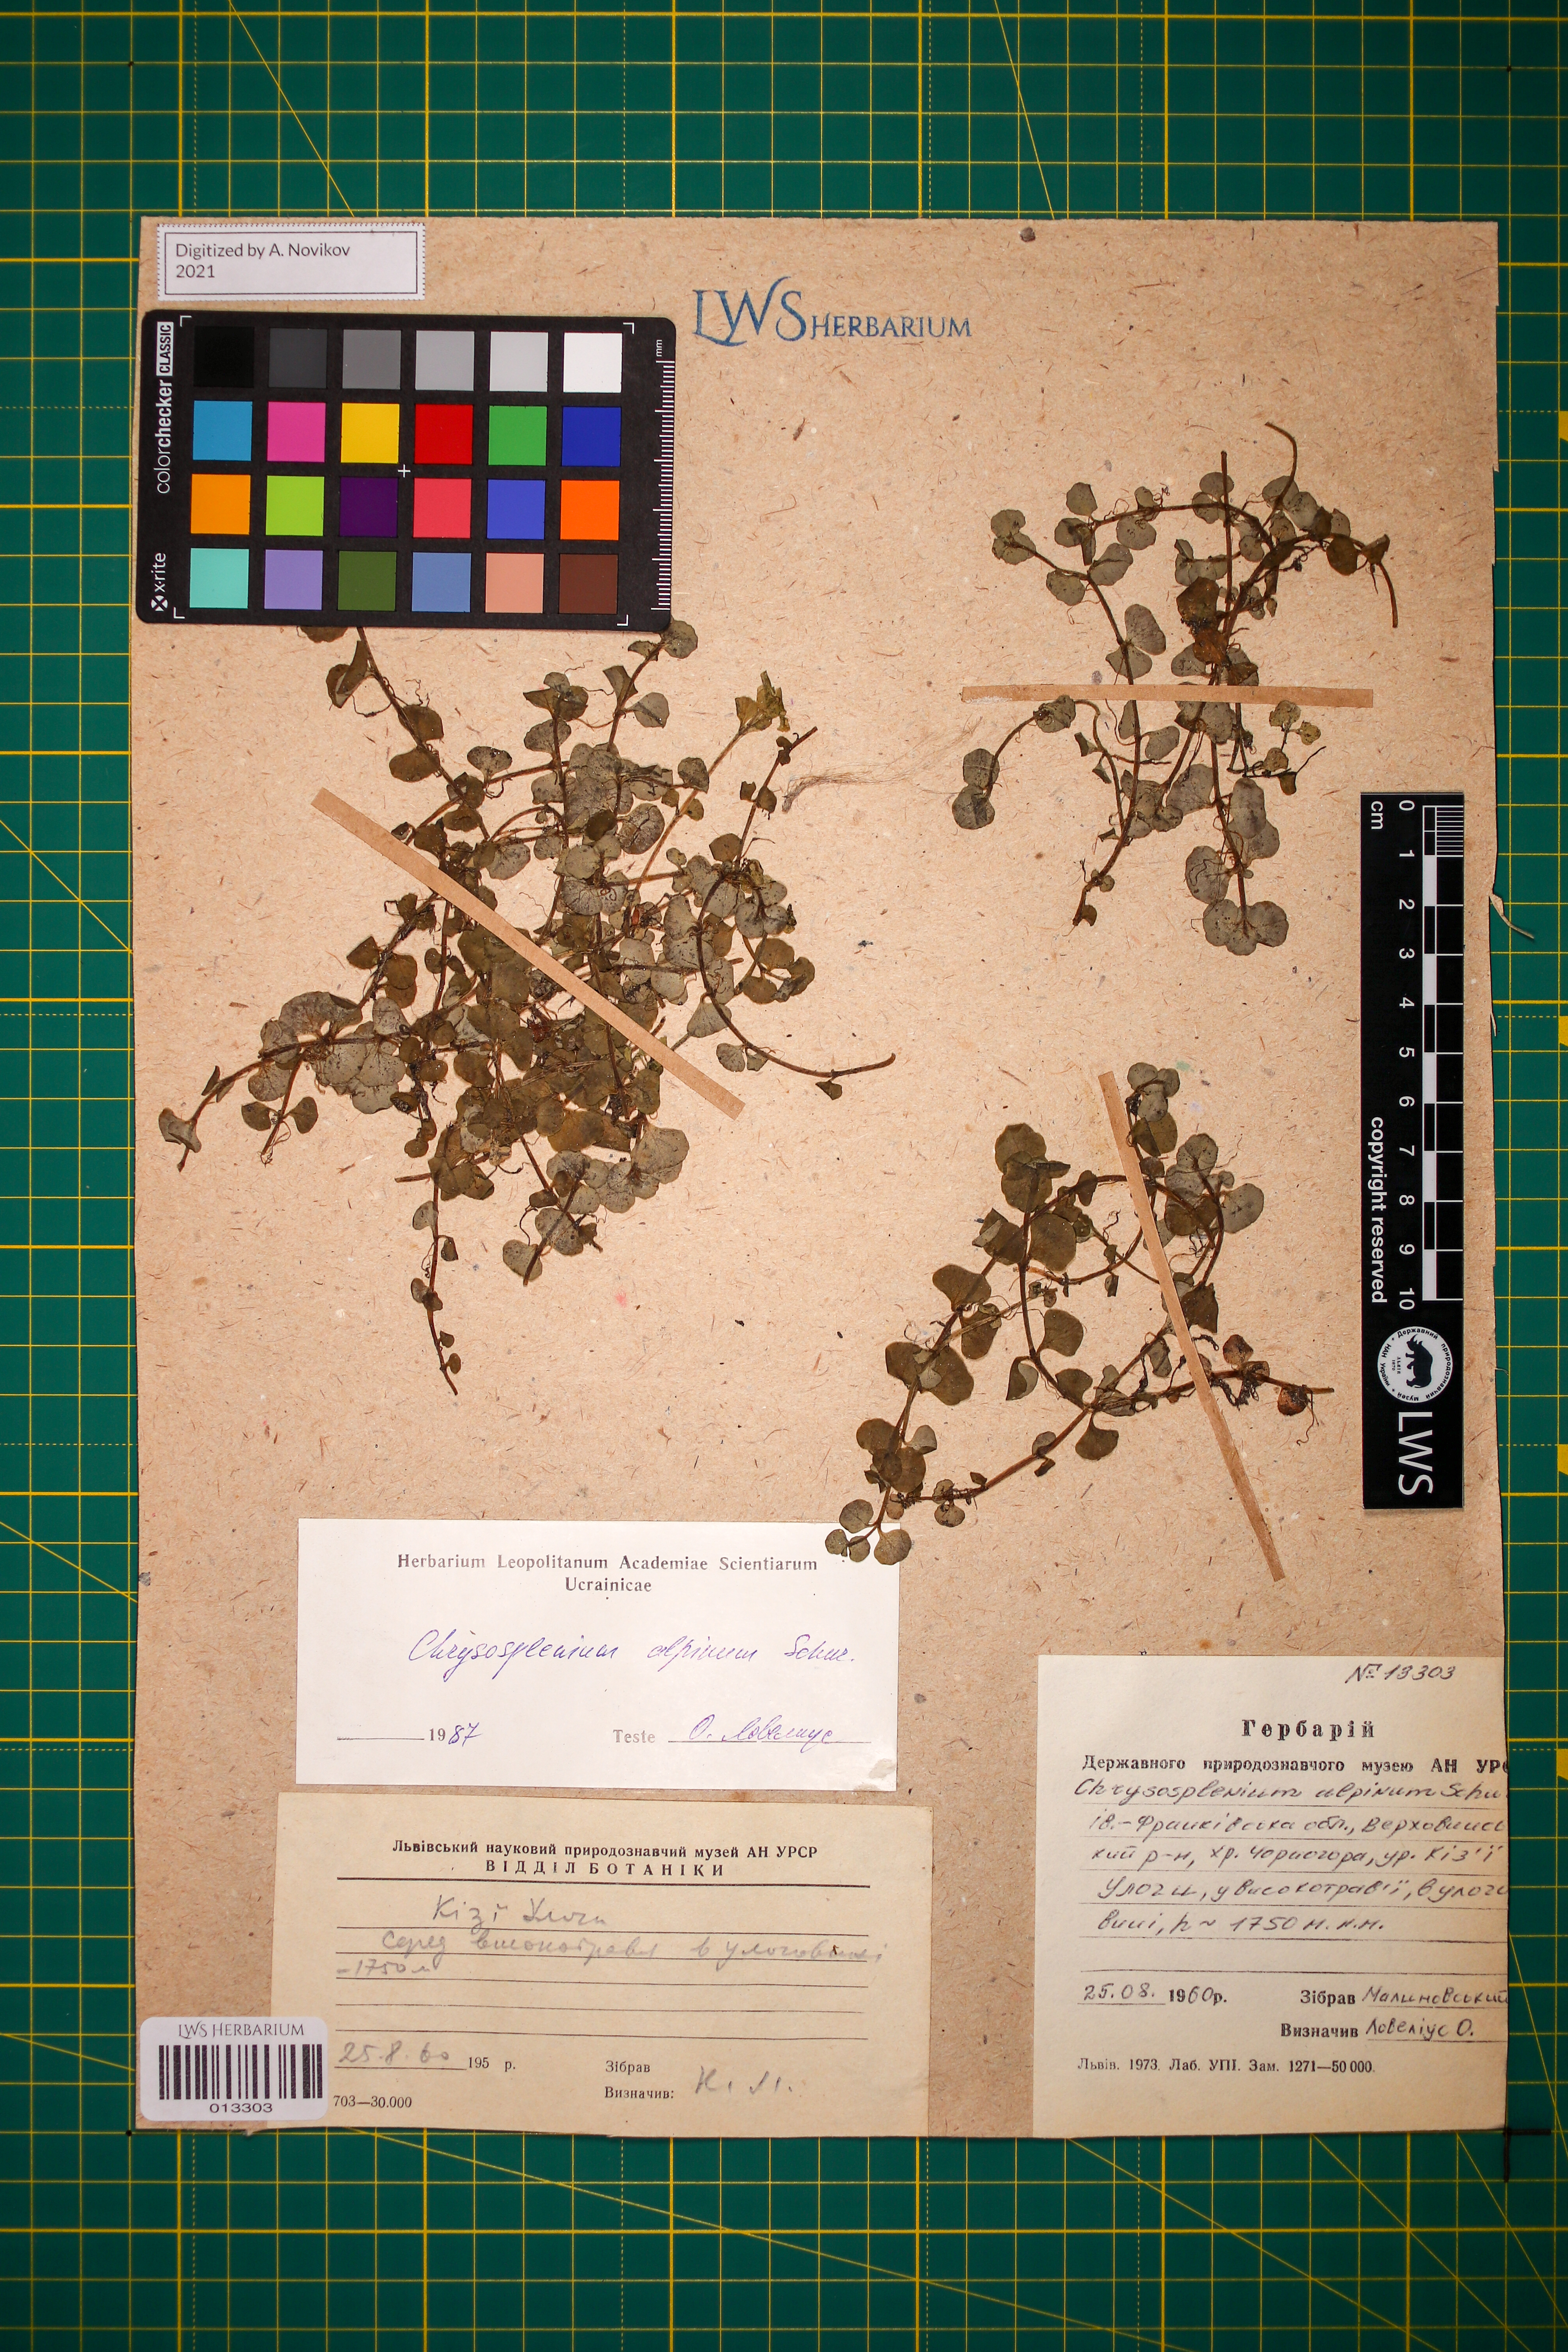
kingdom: Plantae
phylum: Tracheophyta
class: Magnoliopsida
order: Saxifragales
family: Saxifragaceae
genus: Chrysosplenium
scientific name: Chrysosplenium alpinum
